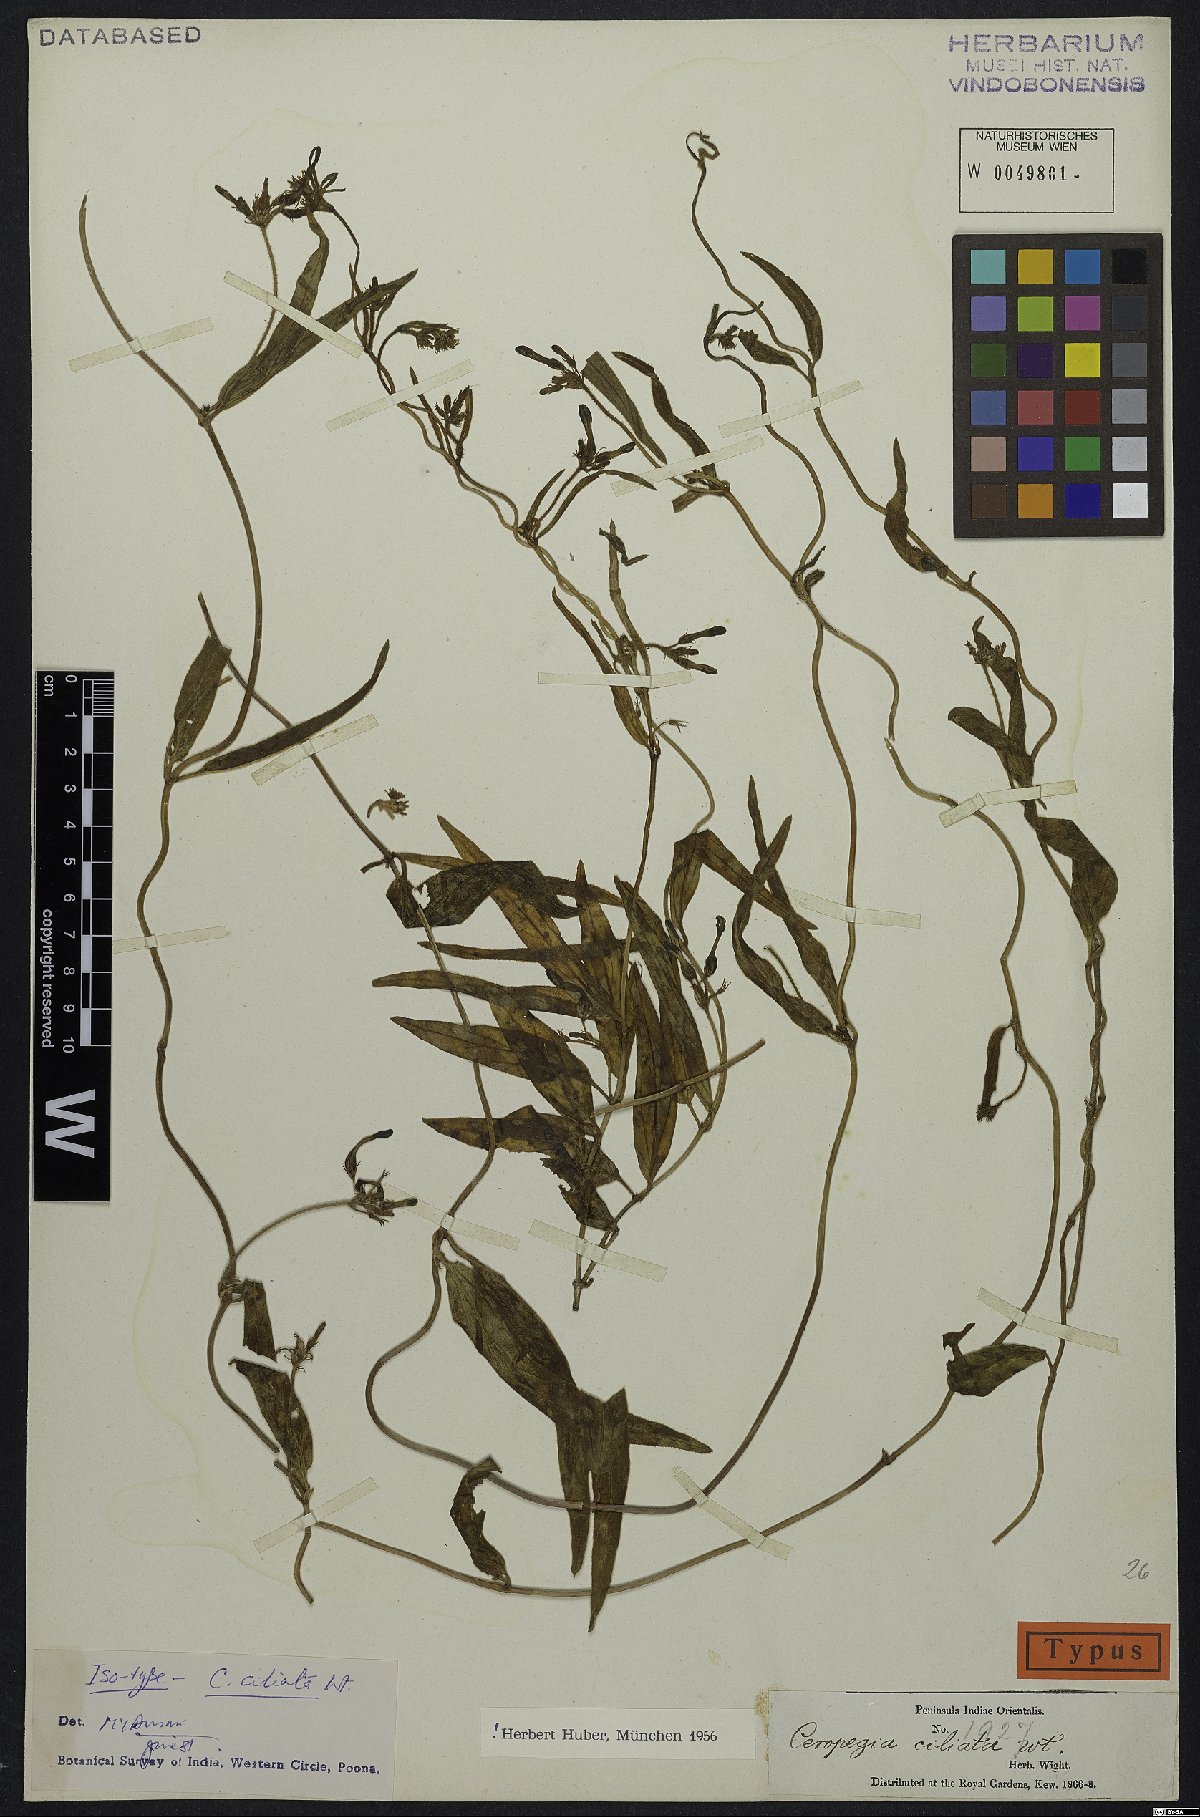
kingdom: Plantae
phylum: Tracheophyta
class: Magnoliopsida
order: Gentianales
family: Apocynaceae
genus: Ceropegia
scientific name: Ceropegia ciliata
